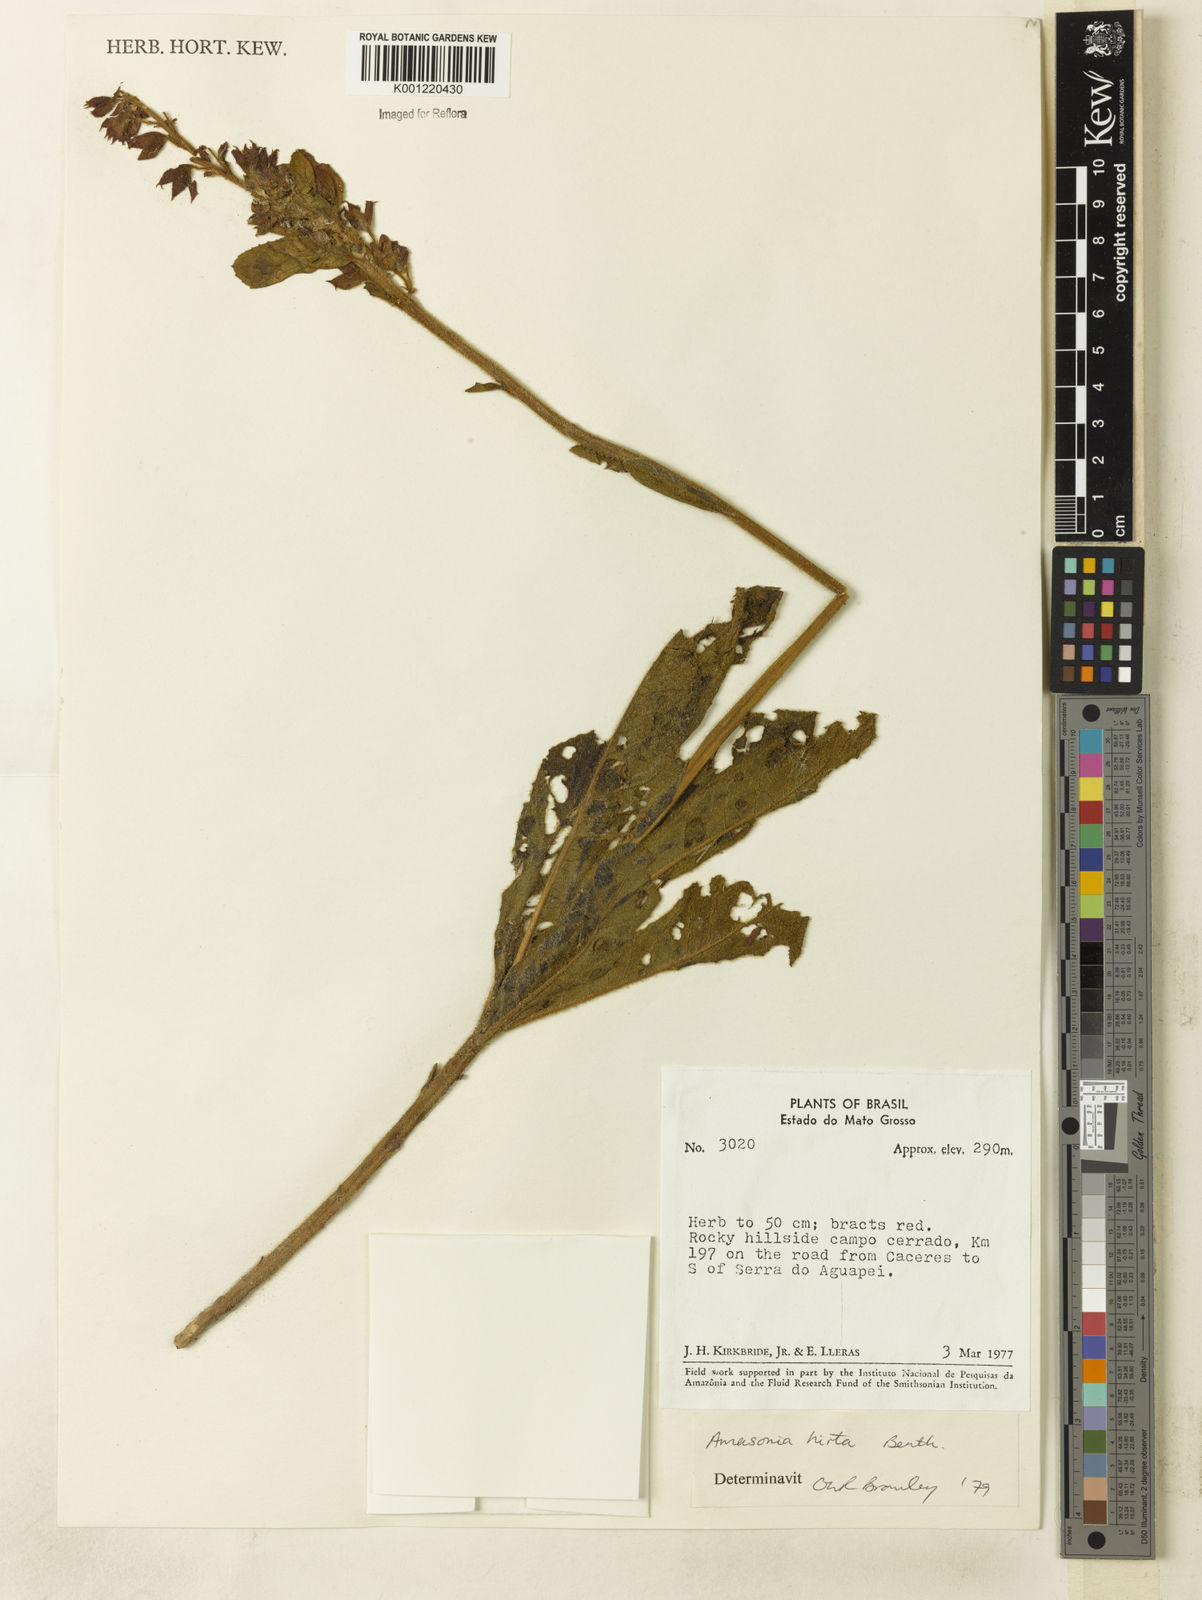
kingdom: Plantae
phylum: Tracheophyta
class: Magnoliopsida
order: Lamiales
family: Lamiaceae
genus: Amasonia
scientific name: Amasonia hirta
